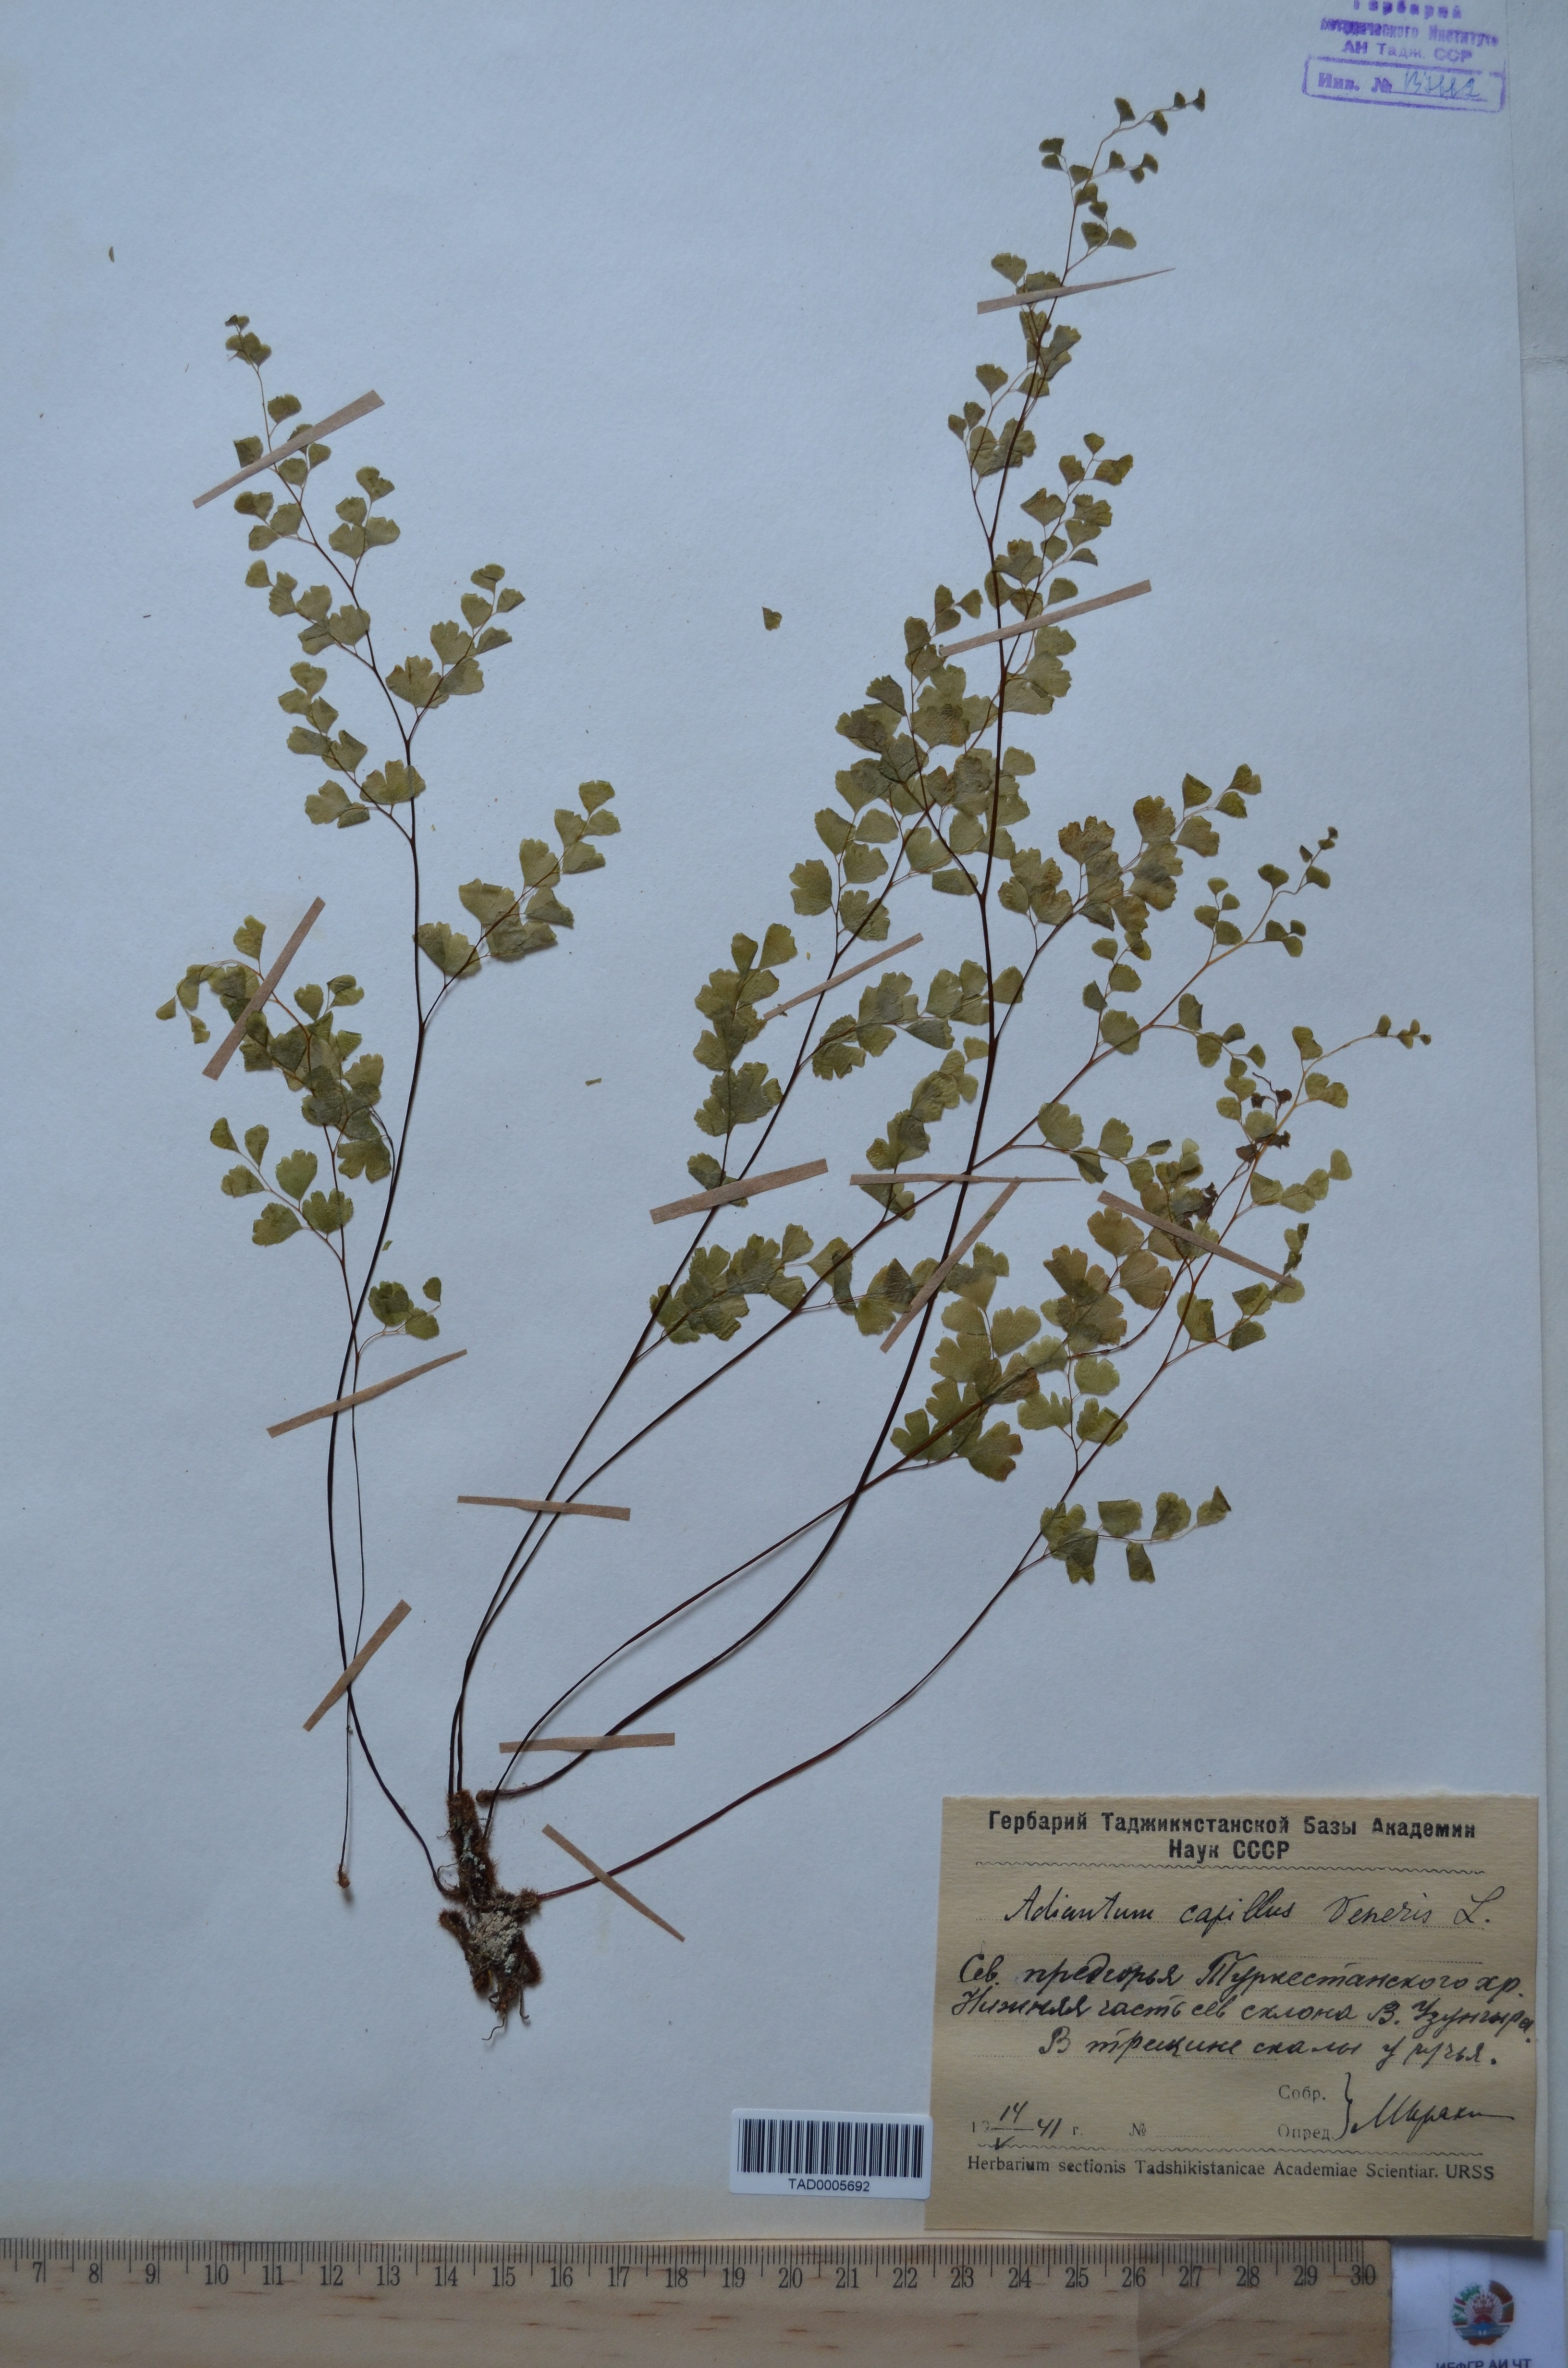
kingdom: Plantae
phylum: Tracheophyta
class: Polypodiopsida
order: Polypodiales
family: Pteridaceae
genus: Adiantum
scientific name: Adiantum capillus-veneris
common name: Maidenhair fern
